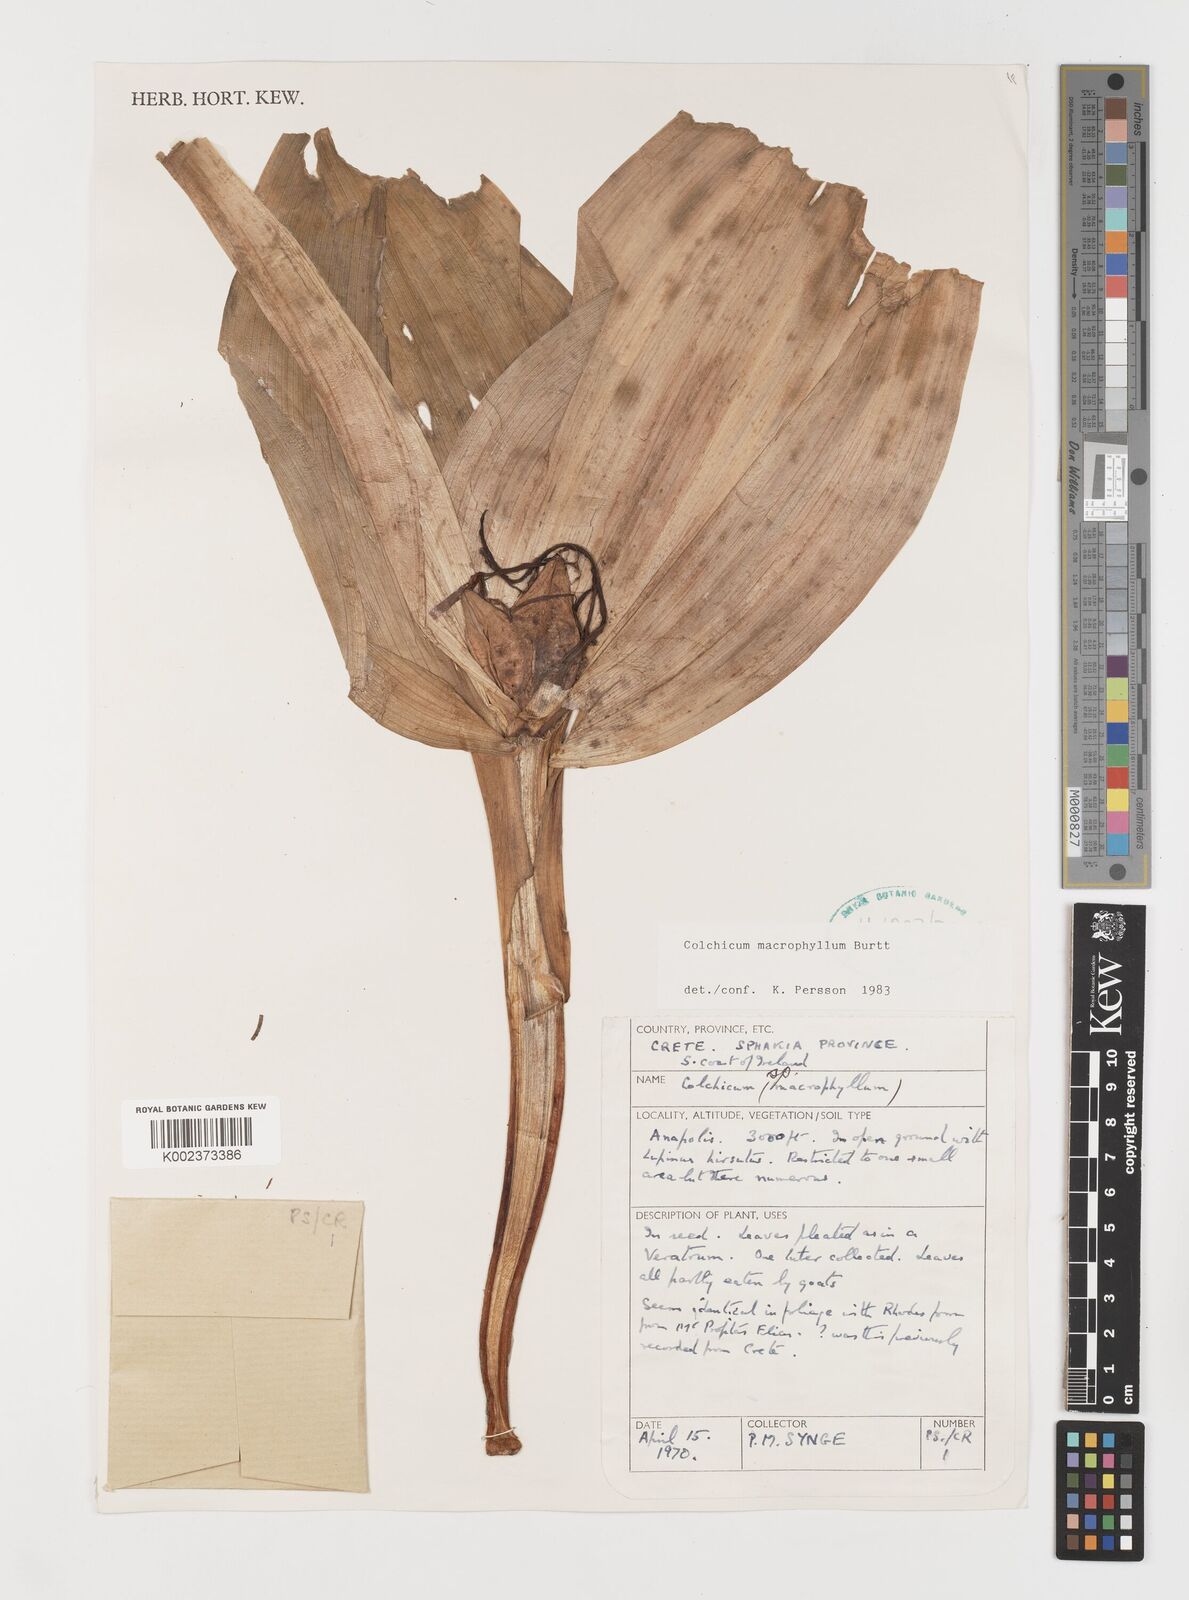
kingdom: Plantae
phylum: Tracheophyta
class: Liliopsida
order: Liliales
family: Colchicaceae
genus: Colchicum
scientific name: Colchicum macrophyllum
